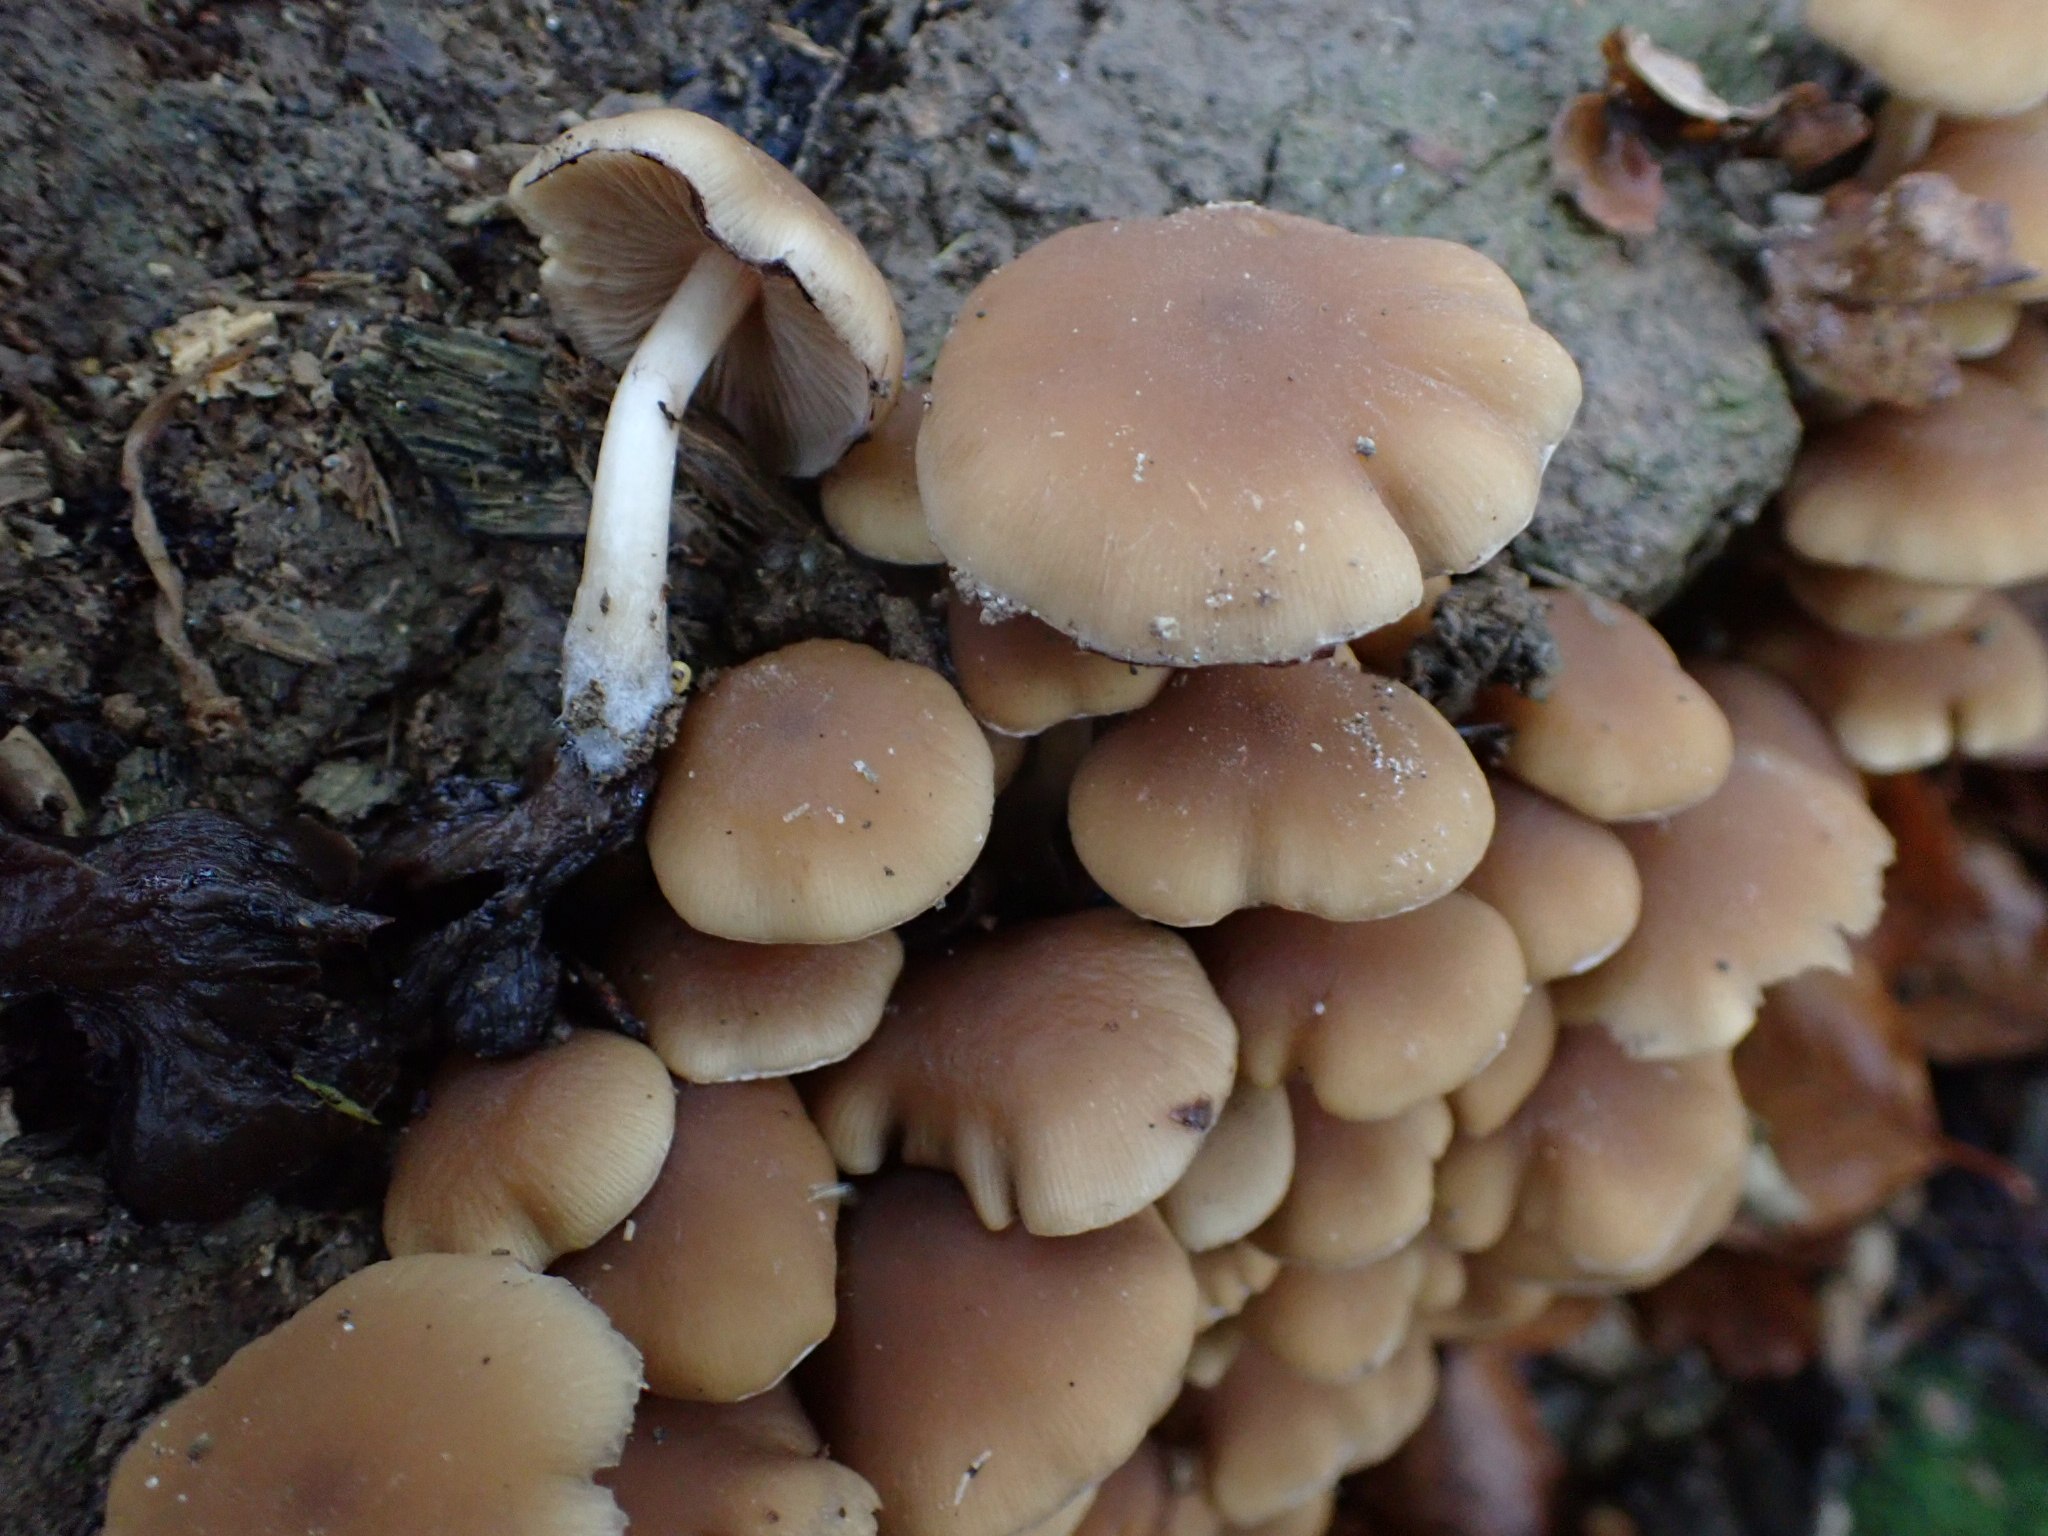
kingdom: Fungi
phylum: Basidiomycota
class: Agaricomycetes
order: Agaricales
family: Psathyrellaceae
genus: Psathyrella
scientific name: Psathyrella piluliformis
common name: lysstokket mørkhat
